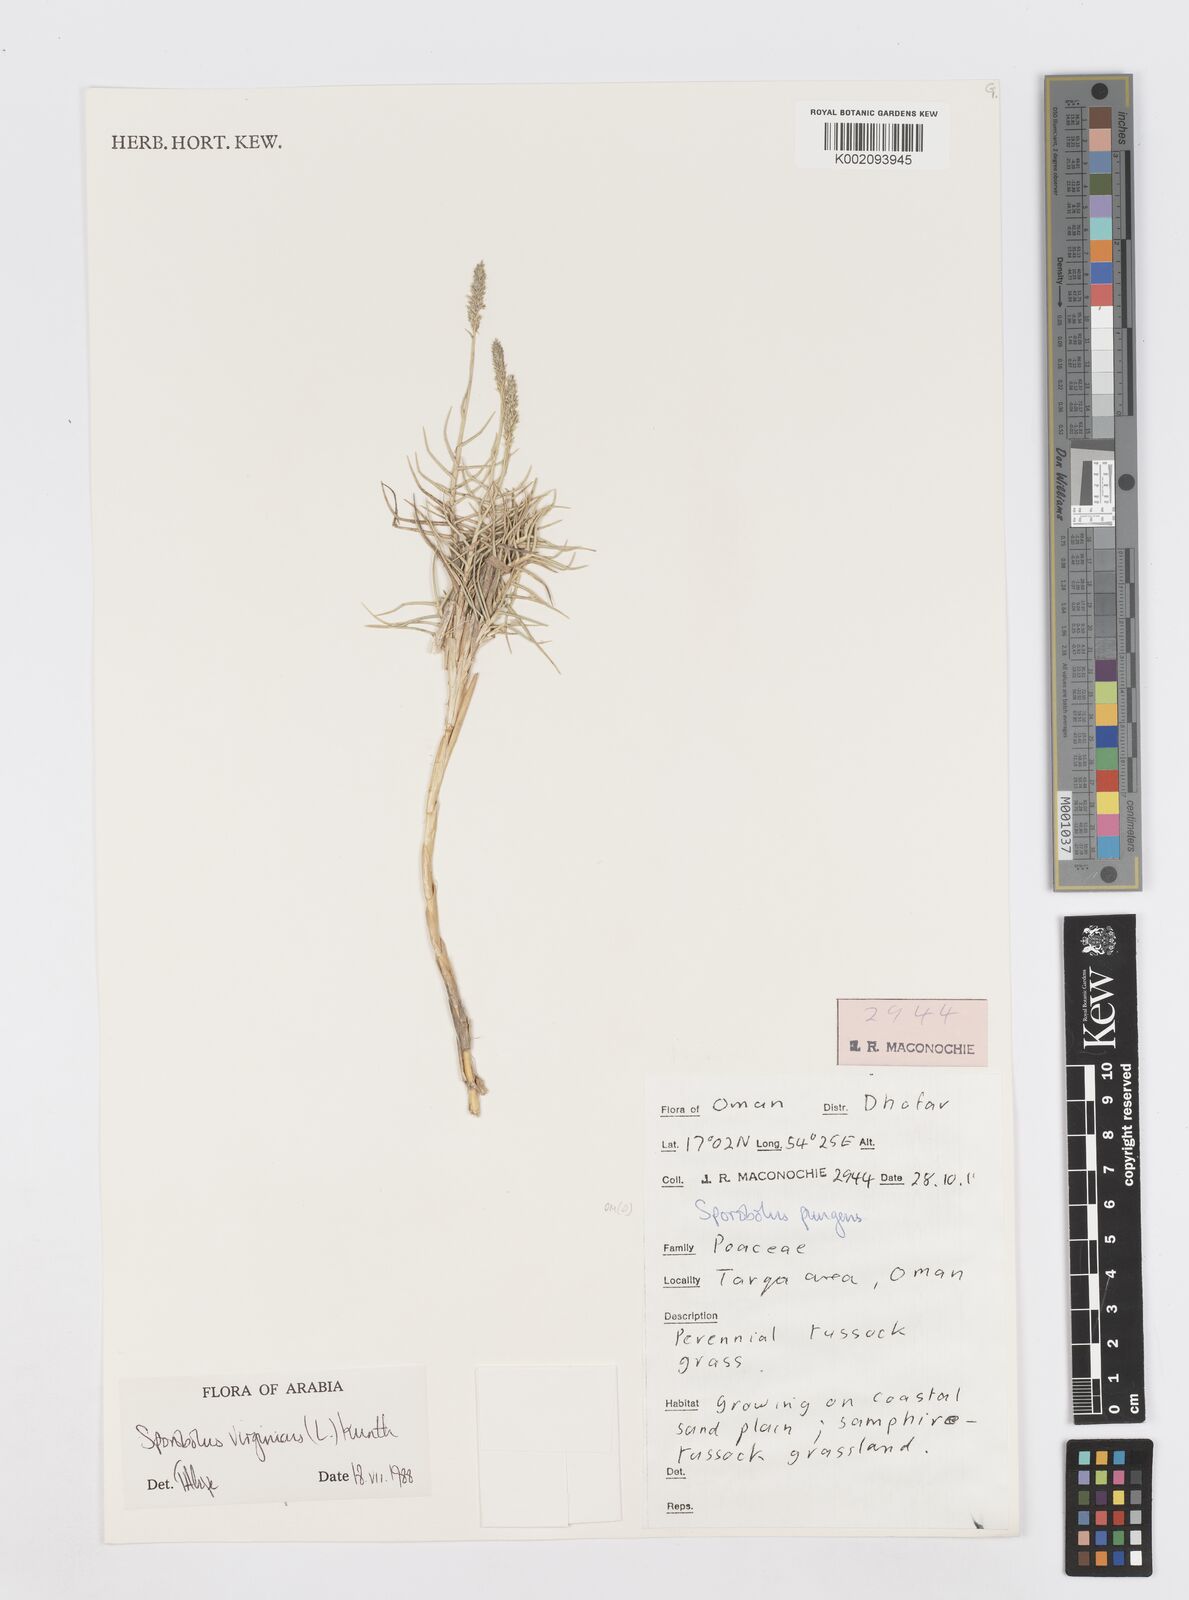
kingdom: Plantae
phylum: Tracheophyta
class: Liliopsida
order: Poales
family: Poaceae
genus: Sporobolus
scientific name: Sporobolus virginicus
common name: Beach dropseed
